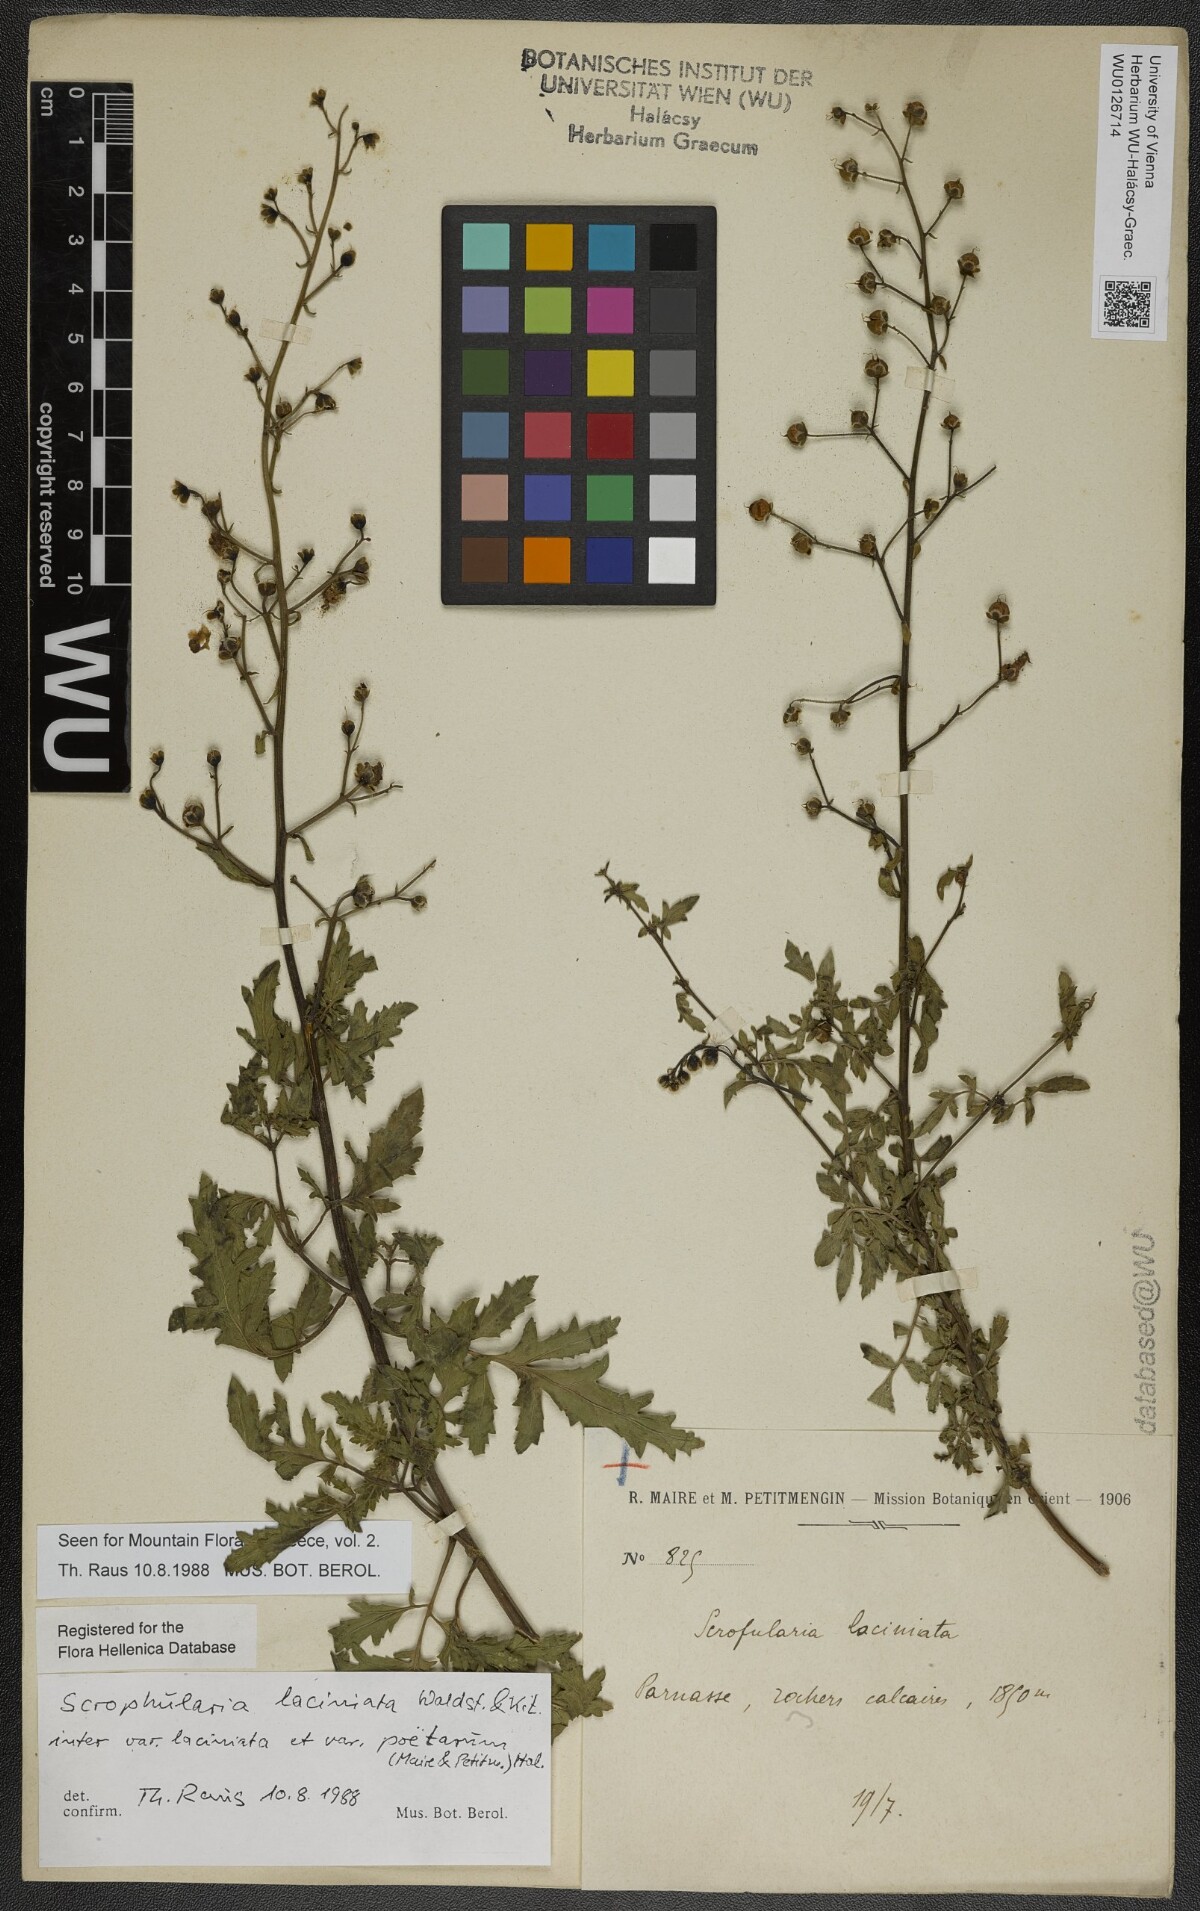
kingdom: Plantae
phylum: Tracheophyta
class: Magnoliopsida
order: Lamiales
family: Scrophulariaceae
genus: Scrophularia
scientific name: Scrophularia laciniata
